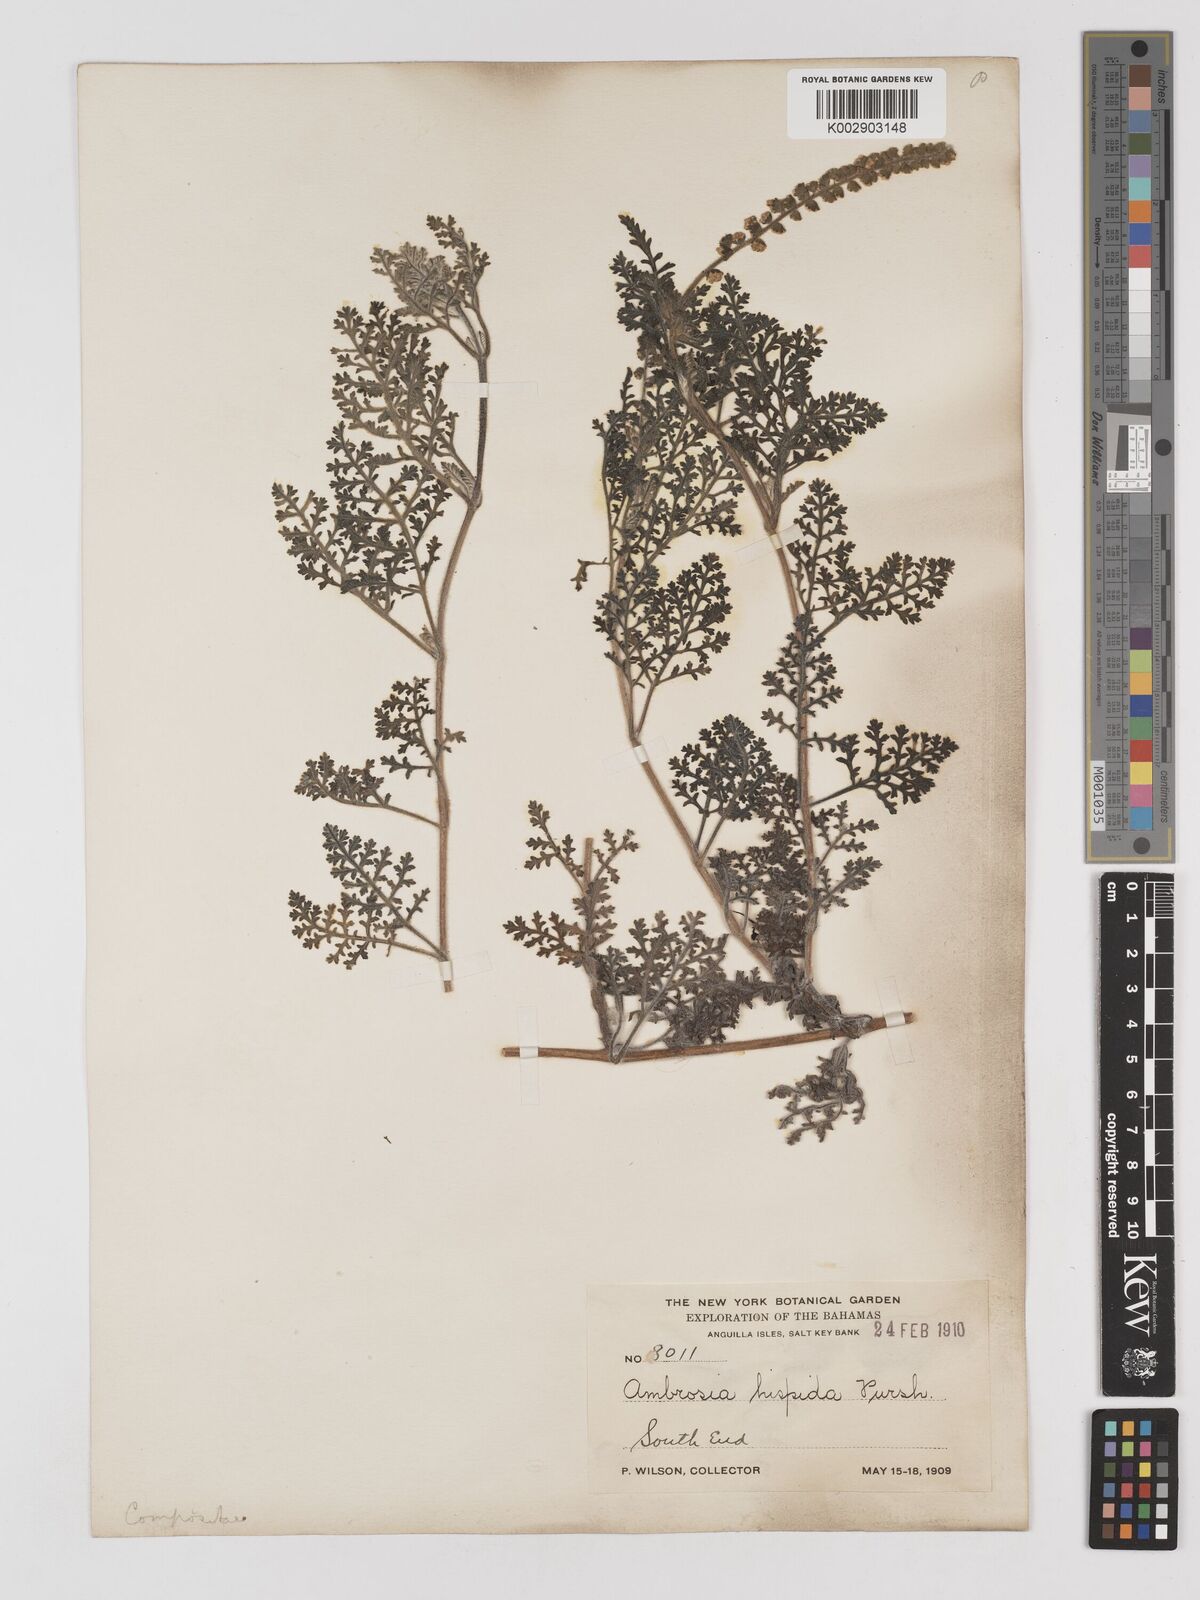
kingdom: Plantae
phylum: Tracheophyta
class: Magnoliopsida
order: Asterales
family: Asteraceae
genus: Ambrosia
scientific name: Ambrosia hispida
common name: Coastal ragweed
